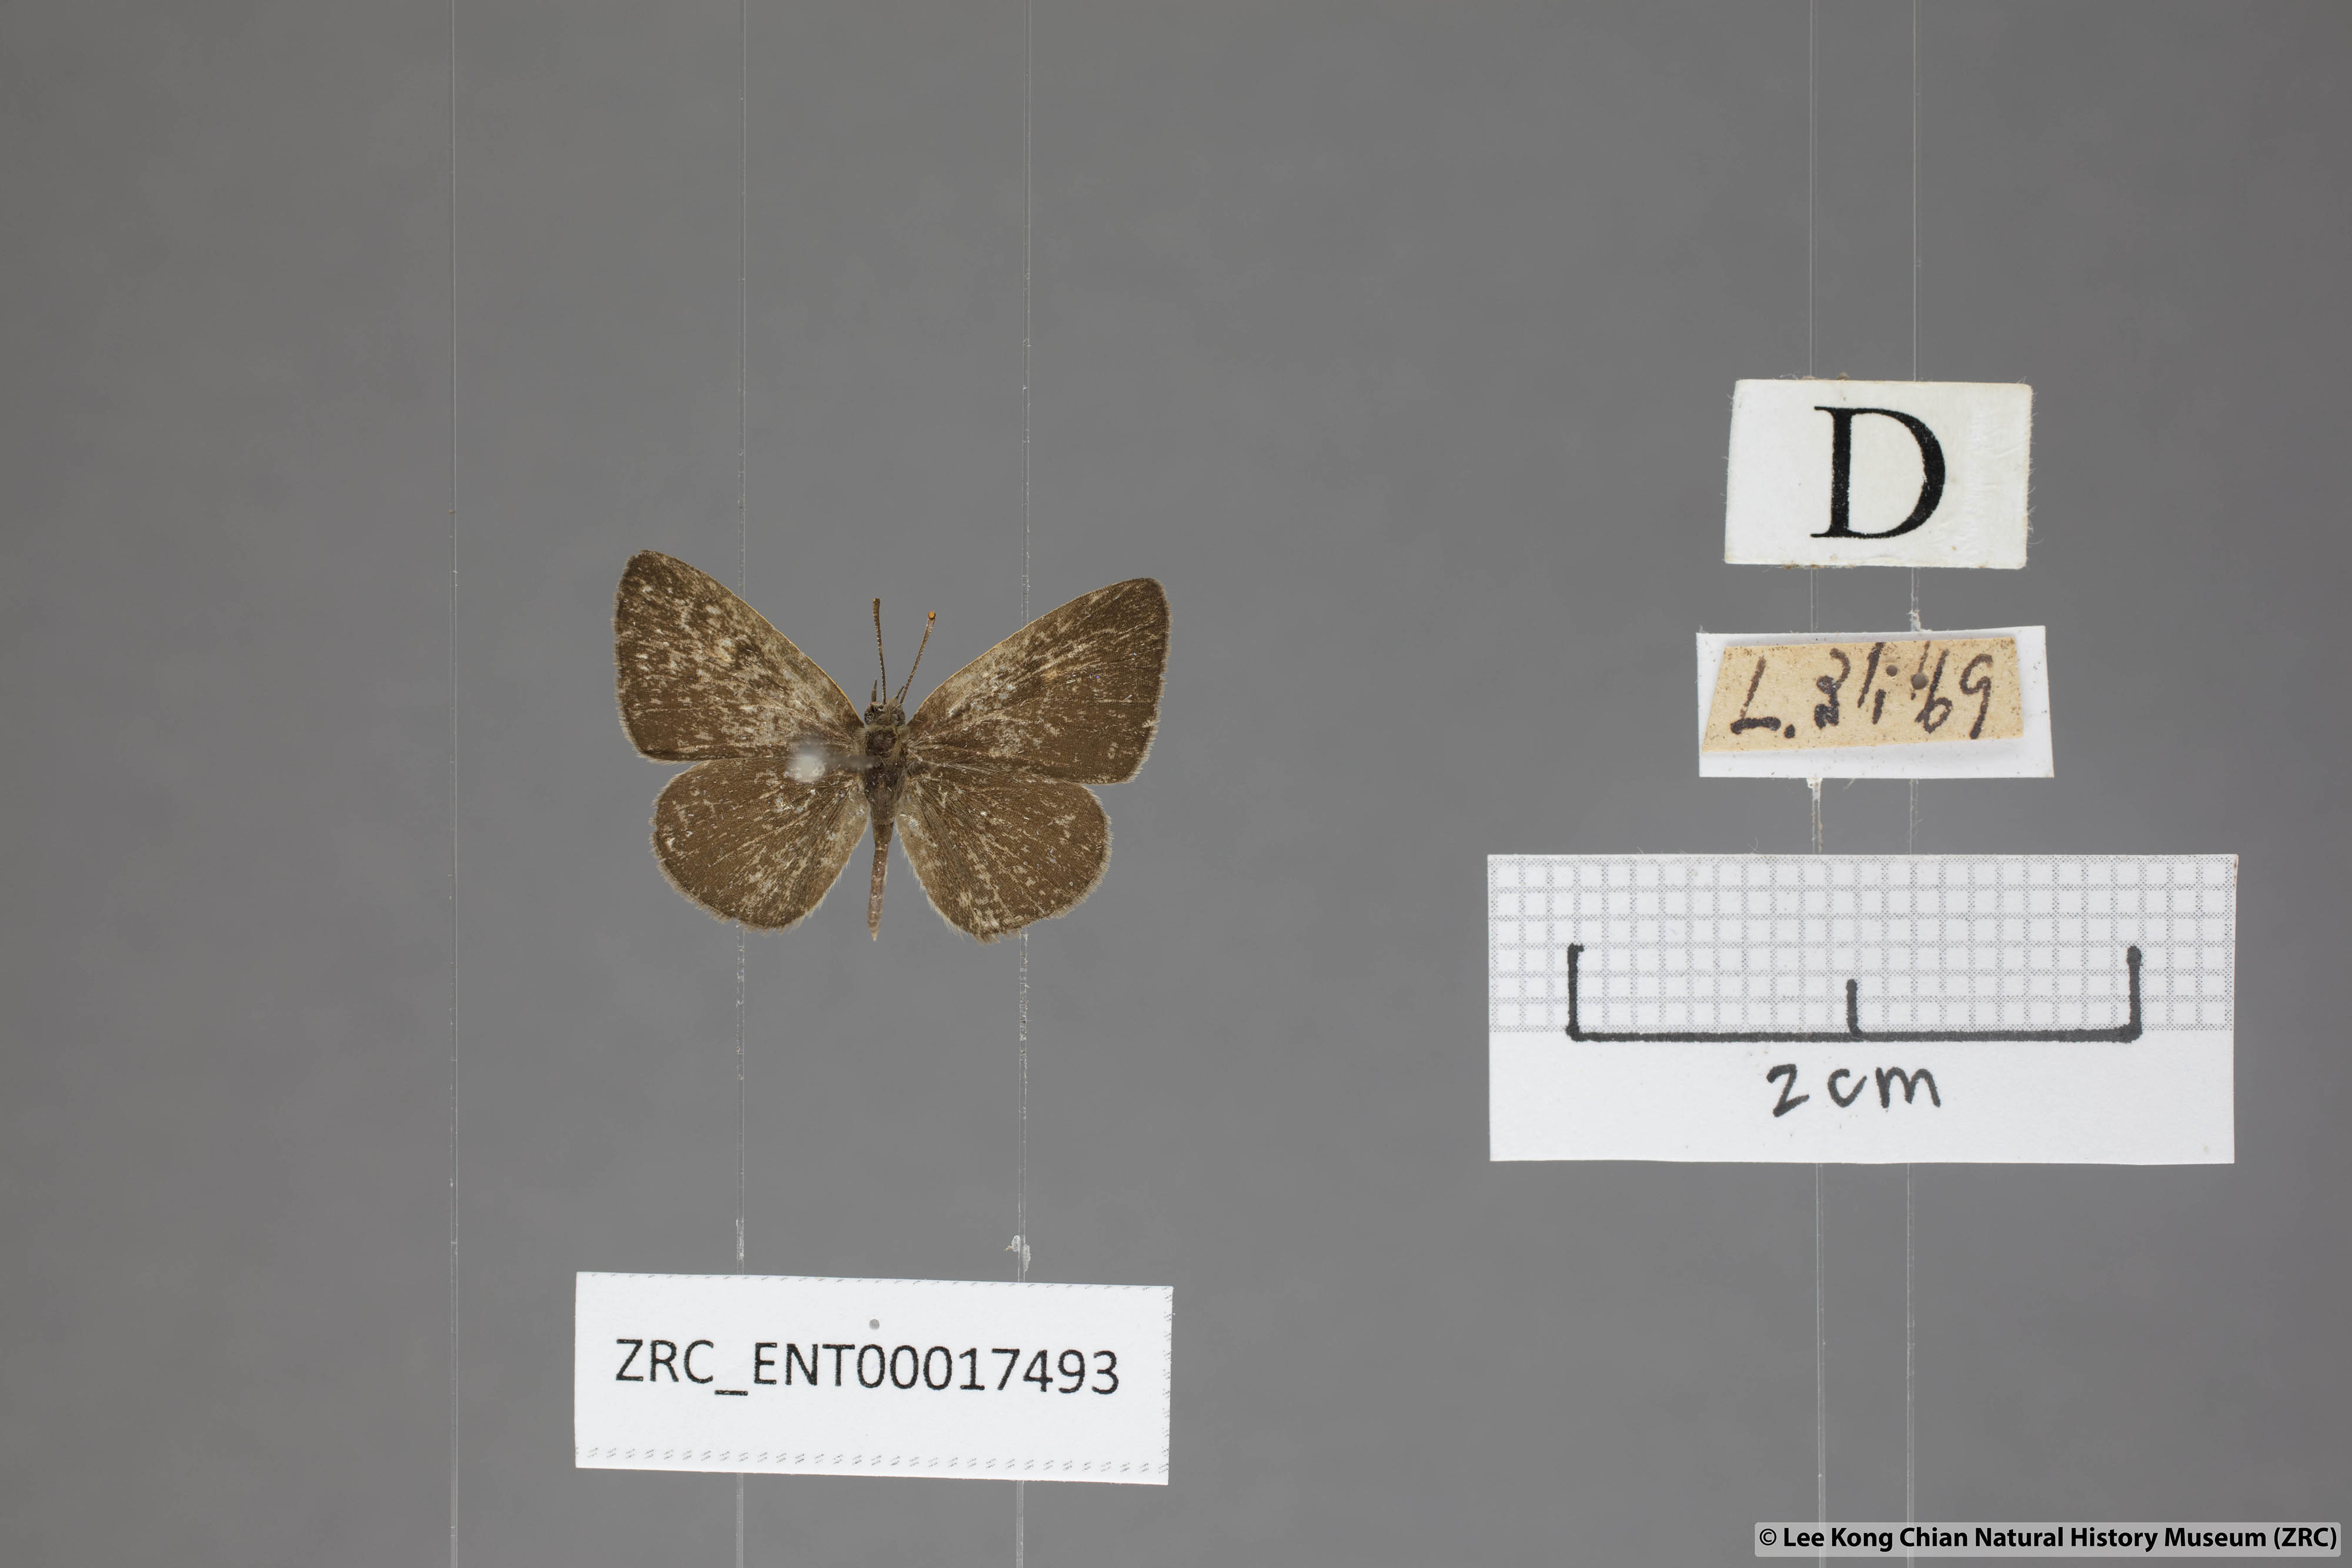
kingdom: Animalia
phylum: Arthropoda
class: Insecta
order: Lepidoptera
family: Lycaenidae
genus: Spalgis
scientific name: Spalgis epeus
